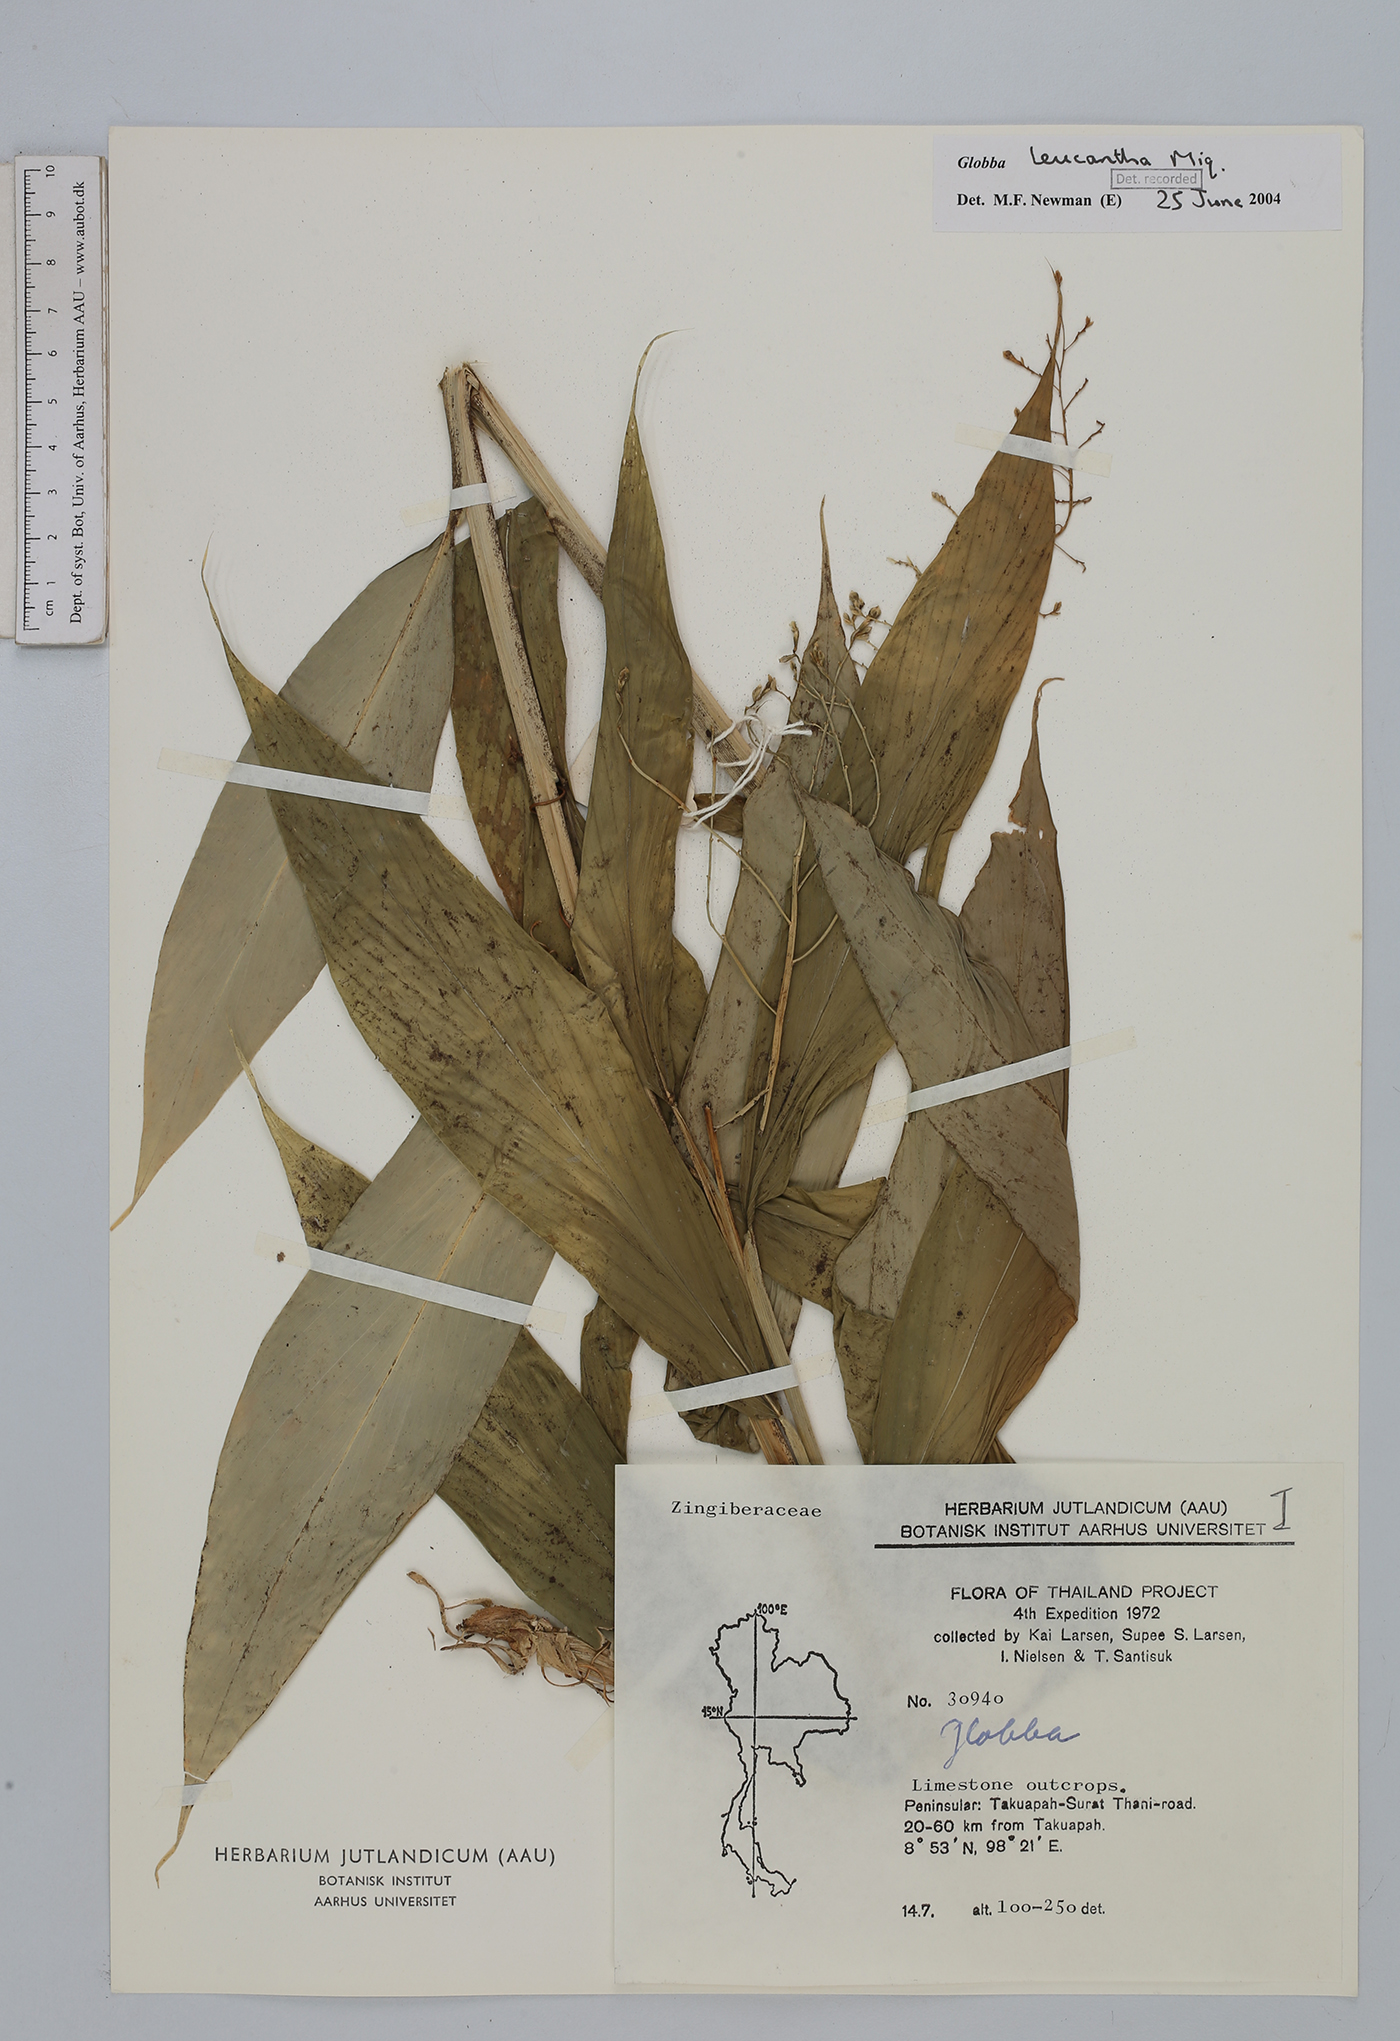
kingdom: Plantae
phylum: Tracheophyta
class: Liliopsida
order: Zingiberales
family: Zingiberaceae
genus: Globba
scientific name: Globba albiflora
